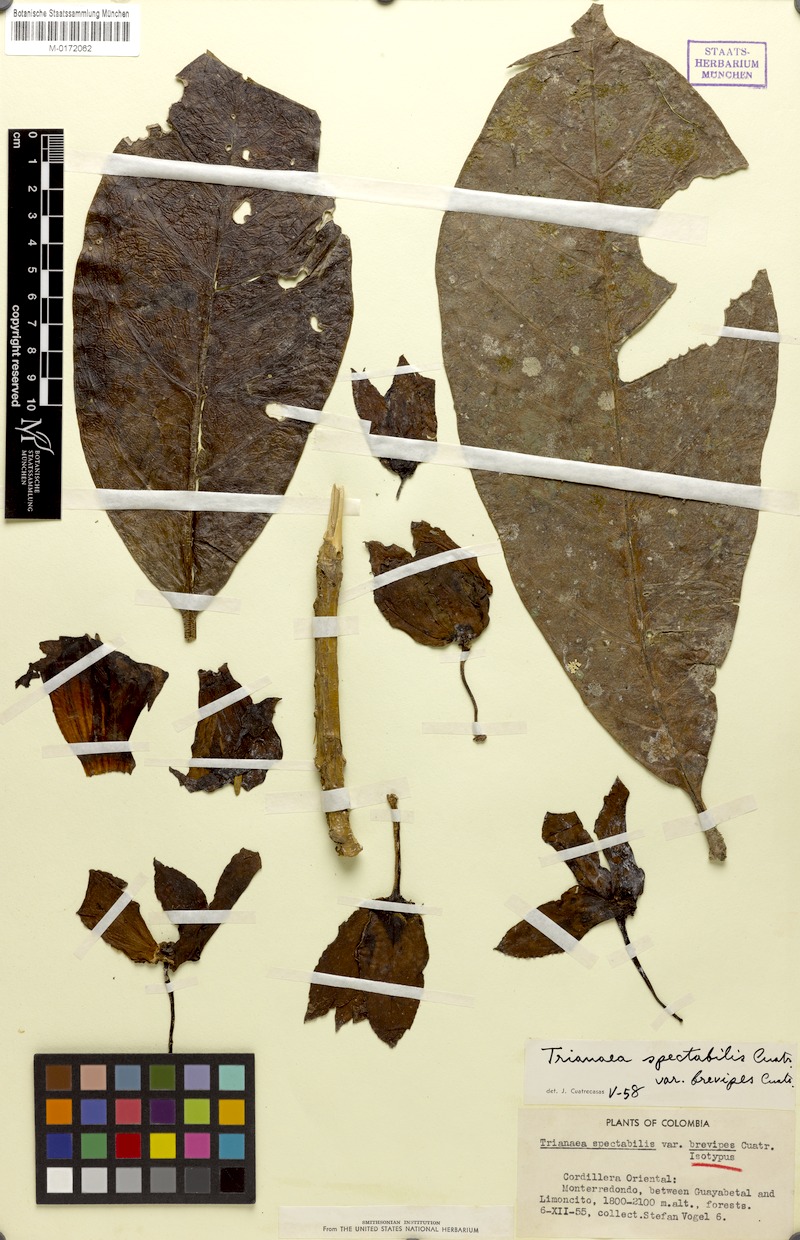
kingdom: Plantae
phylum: Tracheophyta
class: Magnoliopsida
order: Solanales
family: Solanaceae
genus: Poortmannia
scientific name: Poortmannia speciosa
